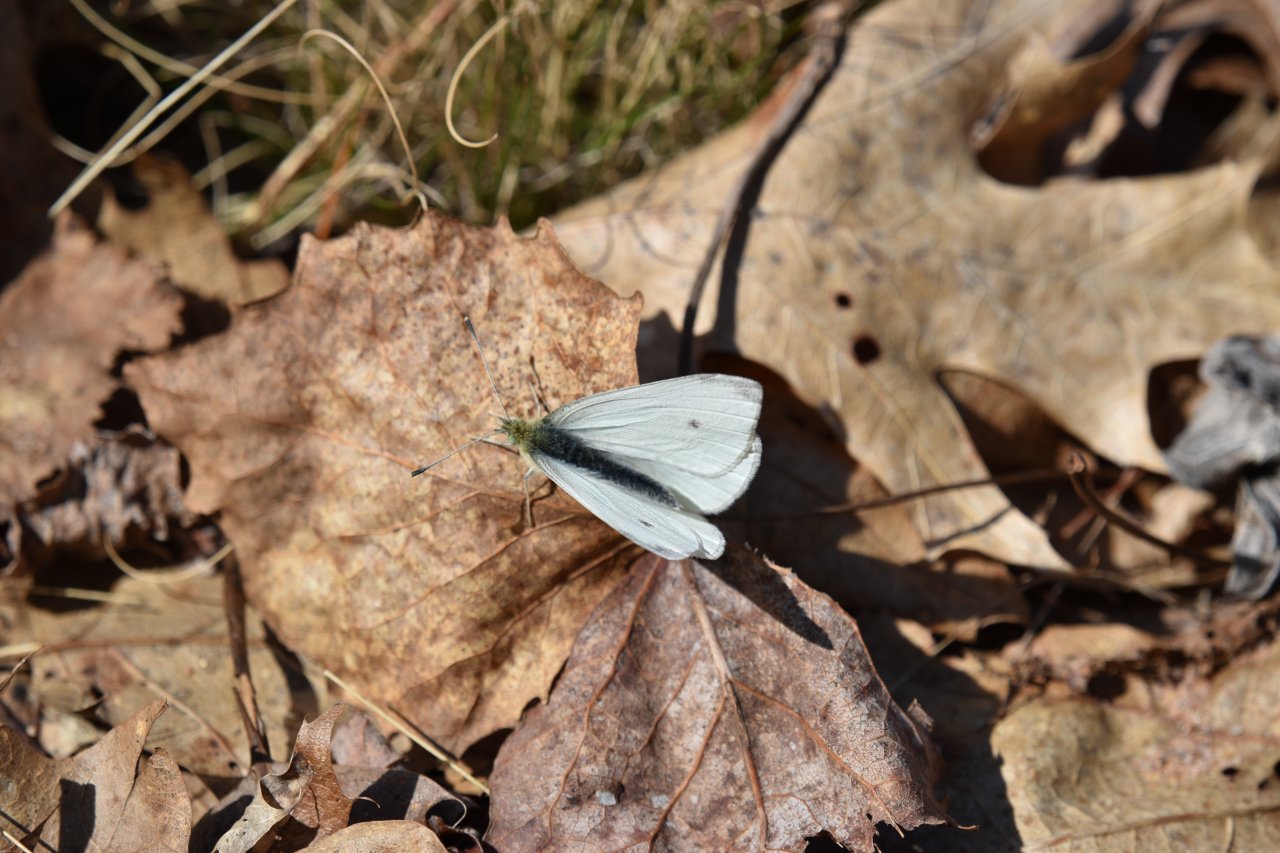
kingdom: Animalia
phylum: Arthropoda
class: Insecta
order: Lepidoptera
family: Pieridae
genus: Pieris
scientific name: Pieris rapae
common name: Cabbage White
